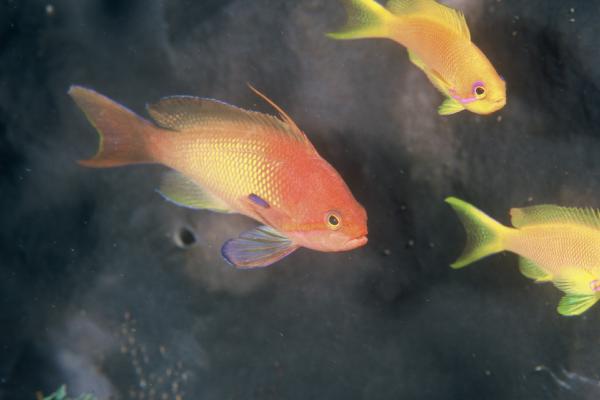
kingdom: Animalia
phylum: Chordata
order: Perciformes
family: Serranidae
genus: Pseudanthias
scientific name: Pseudanthias squamipinnis
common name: Scalefin anthias
